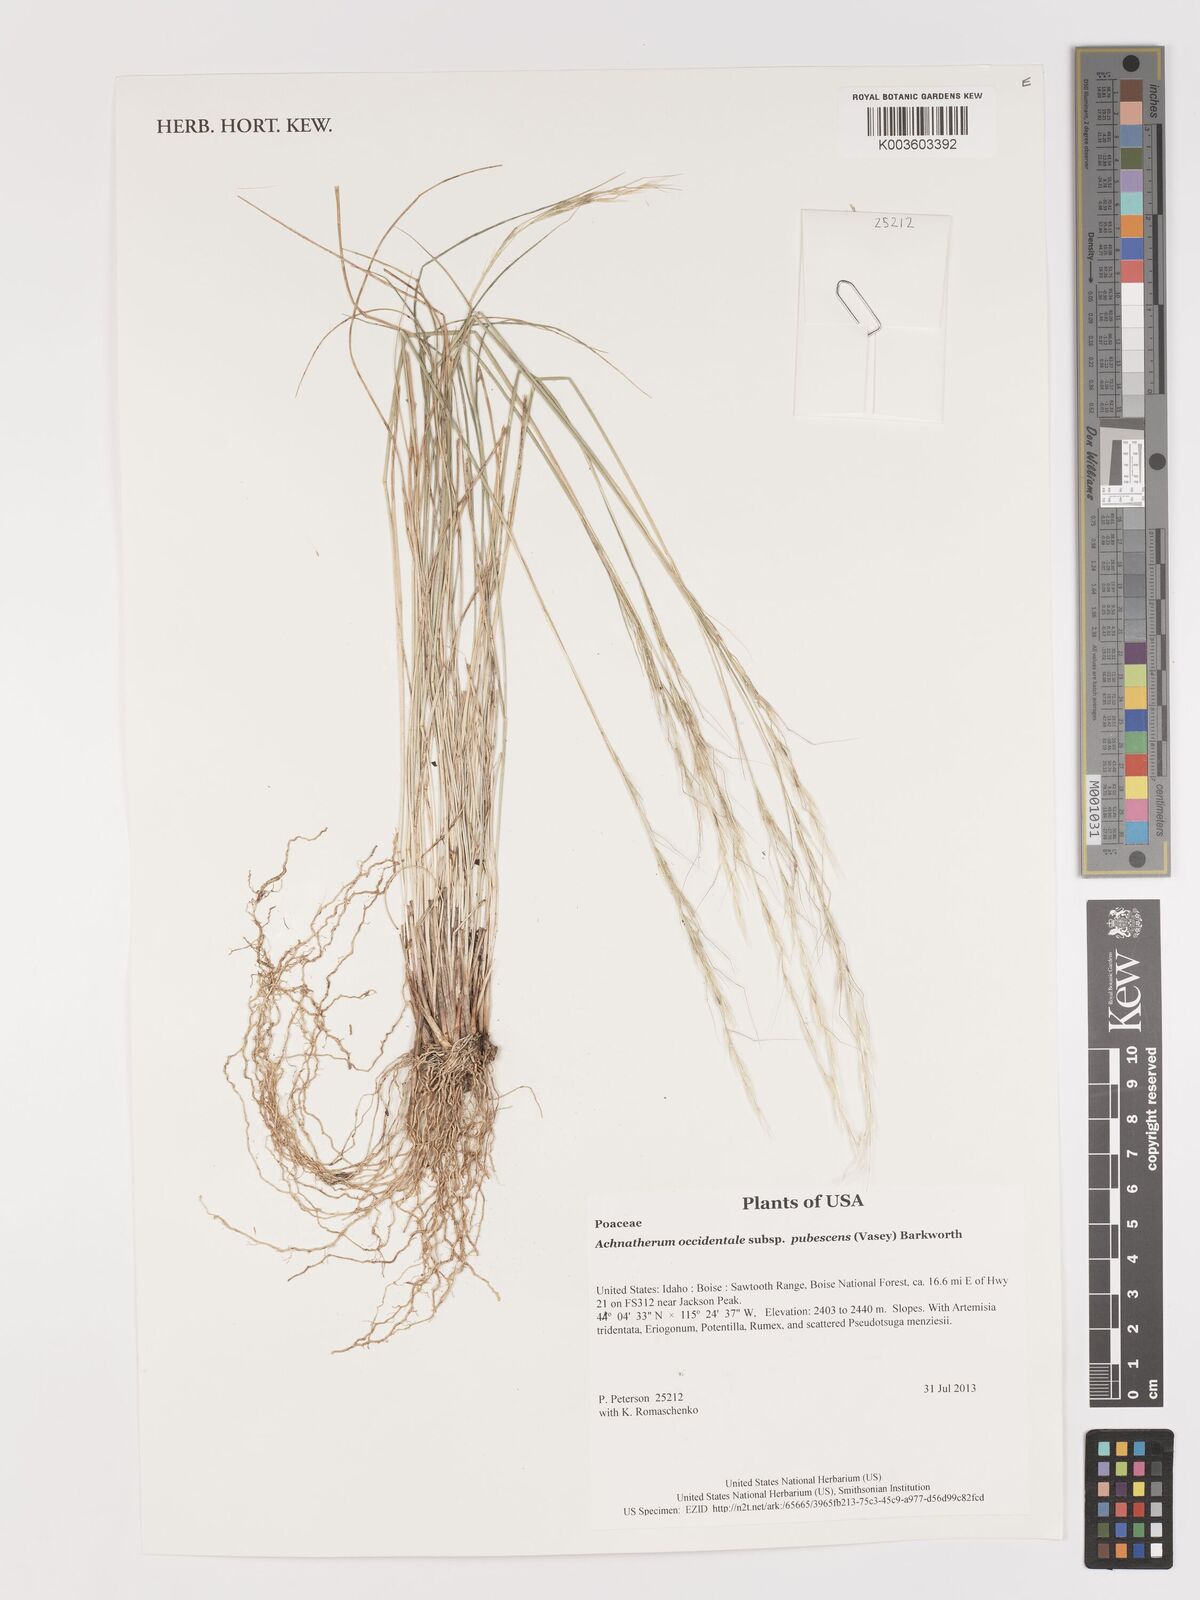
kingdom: Plantae
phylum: Tracheophyta
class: Liliopsida
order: Poales
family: Poaceae
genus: Stipa
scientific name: Stipa
